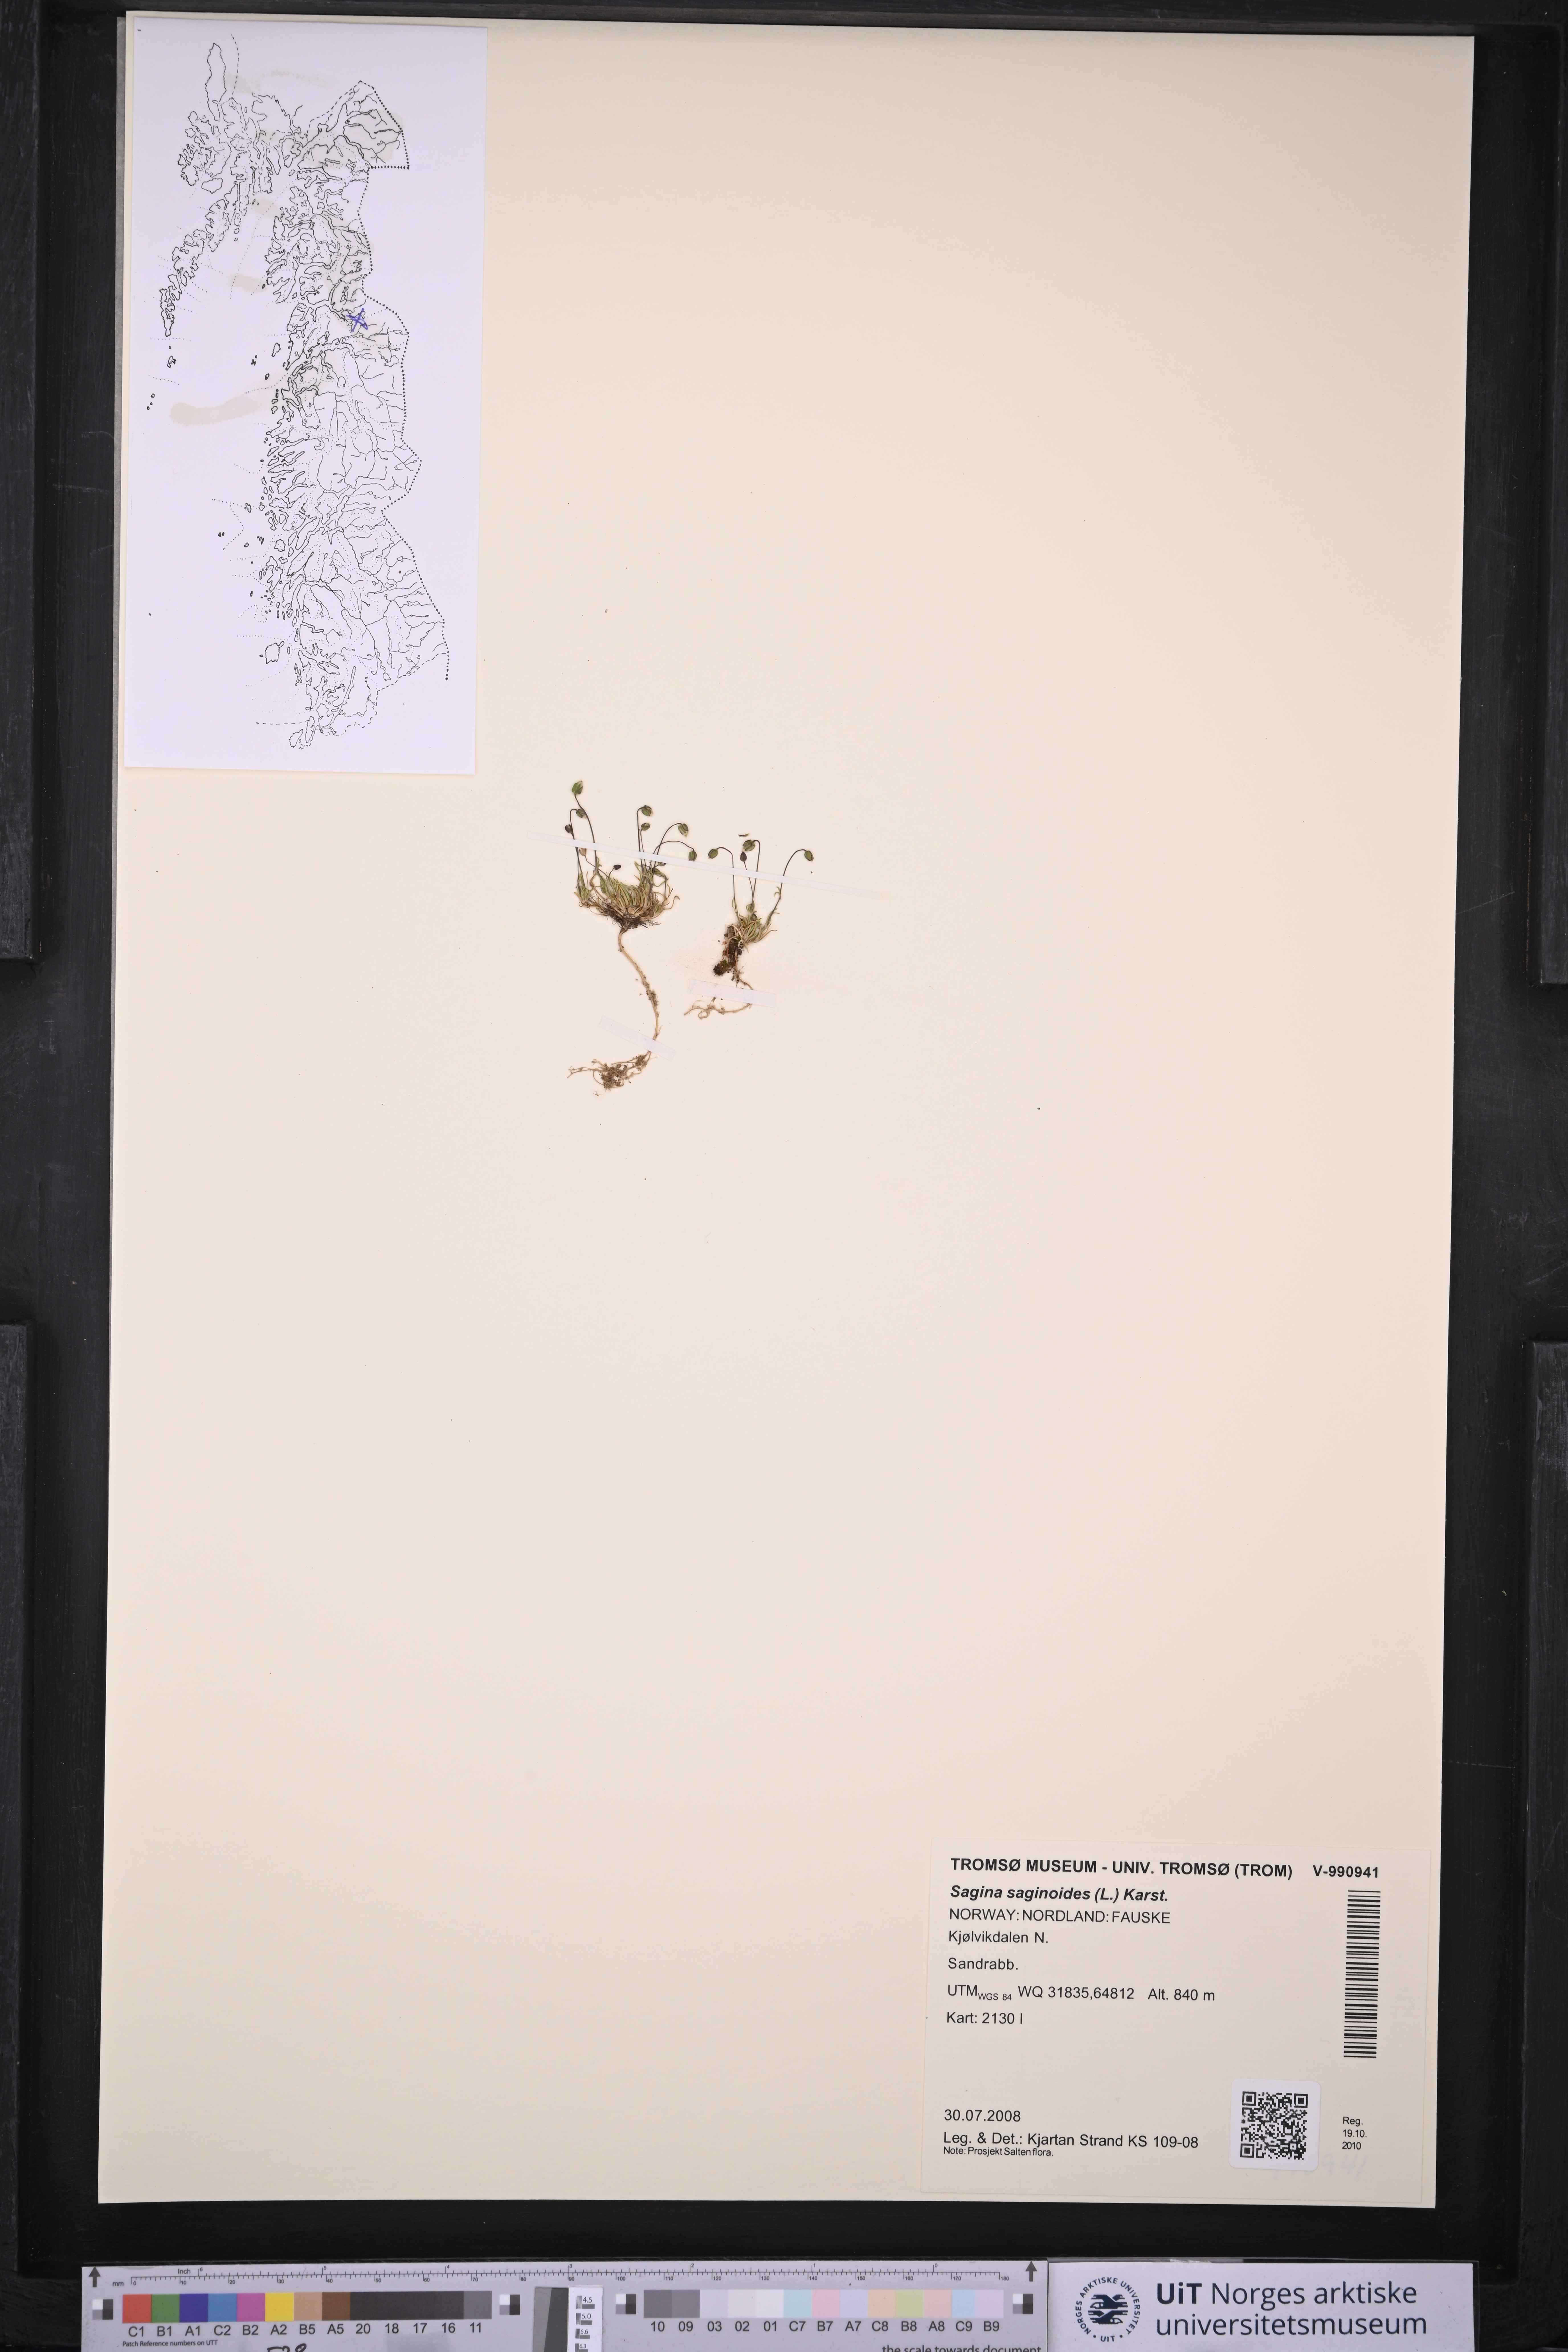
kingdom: Plantae
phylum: Tracheophyta
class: Magnoliopsida
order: Caryophyllales
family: Caryophyllaceae
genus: Sagina
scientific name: Sagina saginoides
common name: Alpine pearlwort
